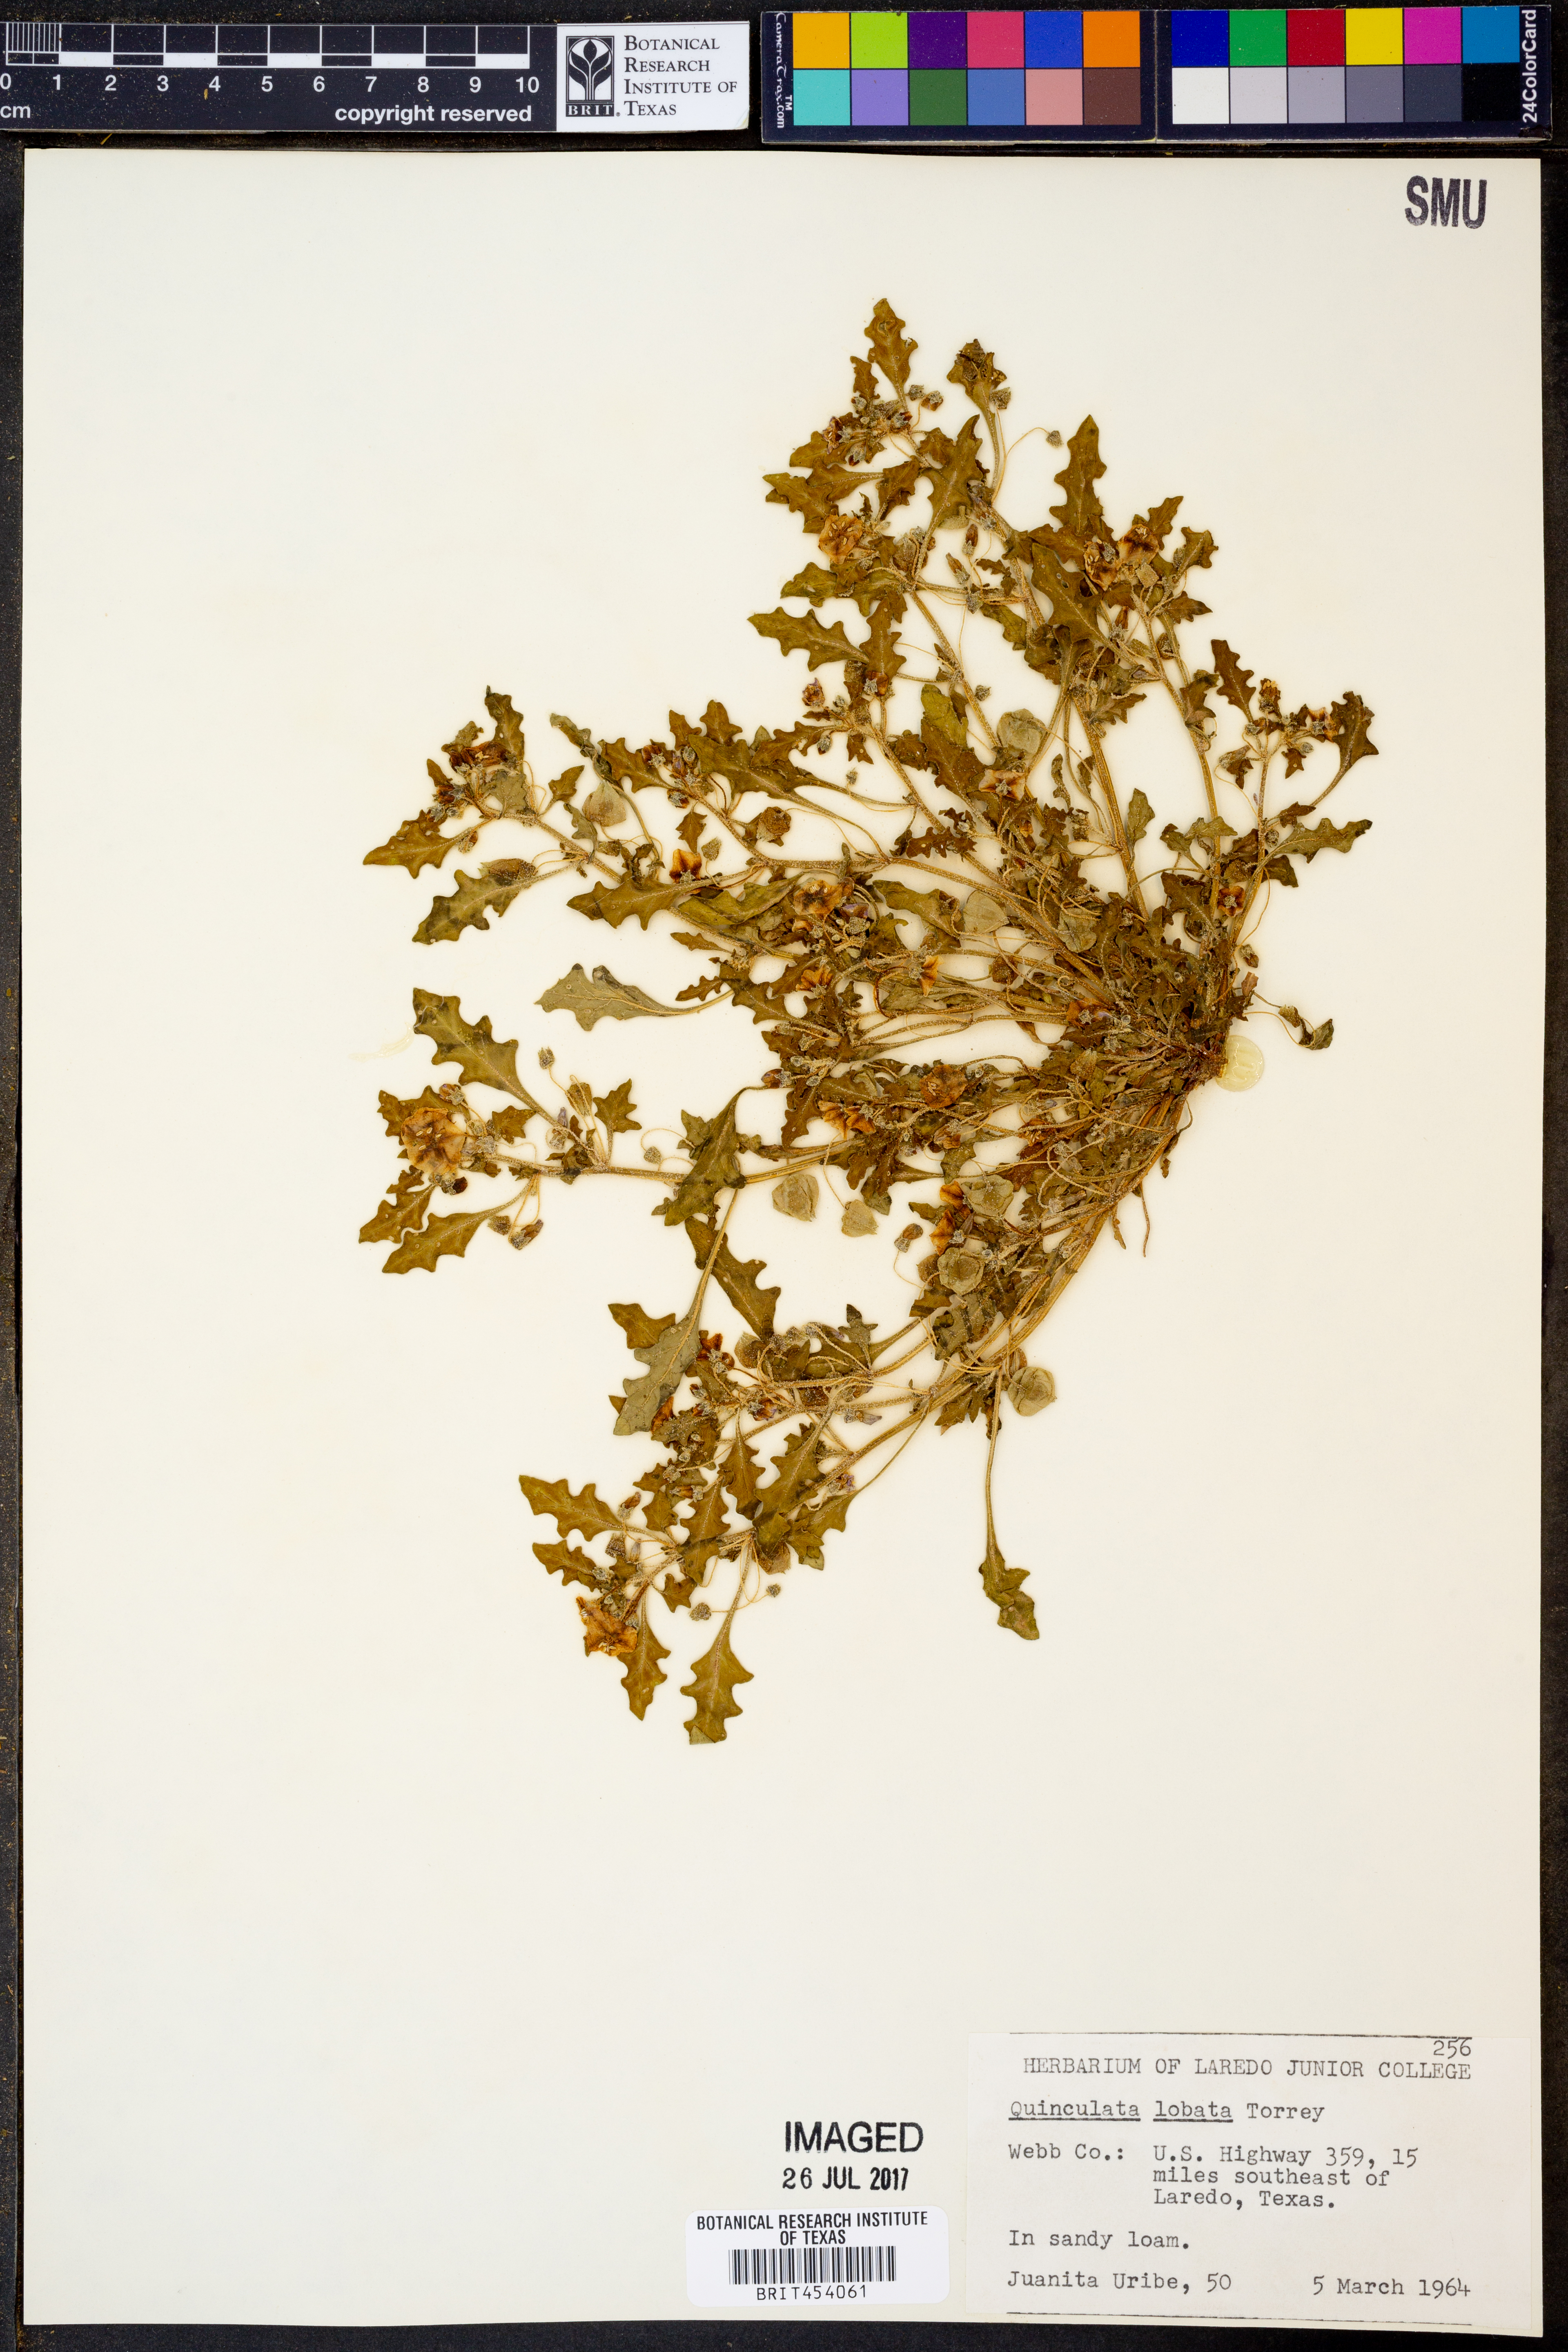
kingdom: Plantae
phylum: Tracheophyta
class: Magnoliopsida
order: Solanales
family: Solanaceae
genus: Quincula
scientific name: Quincula lobata
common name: Purple-ground-cherry
